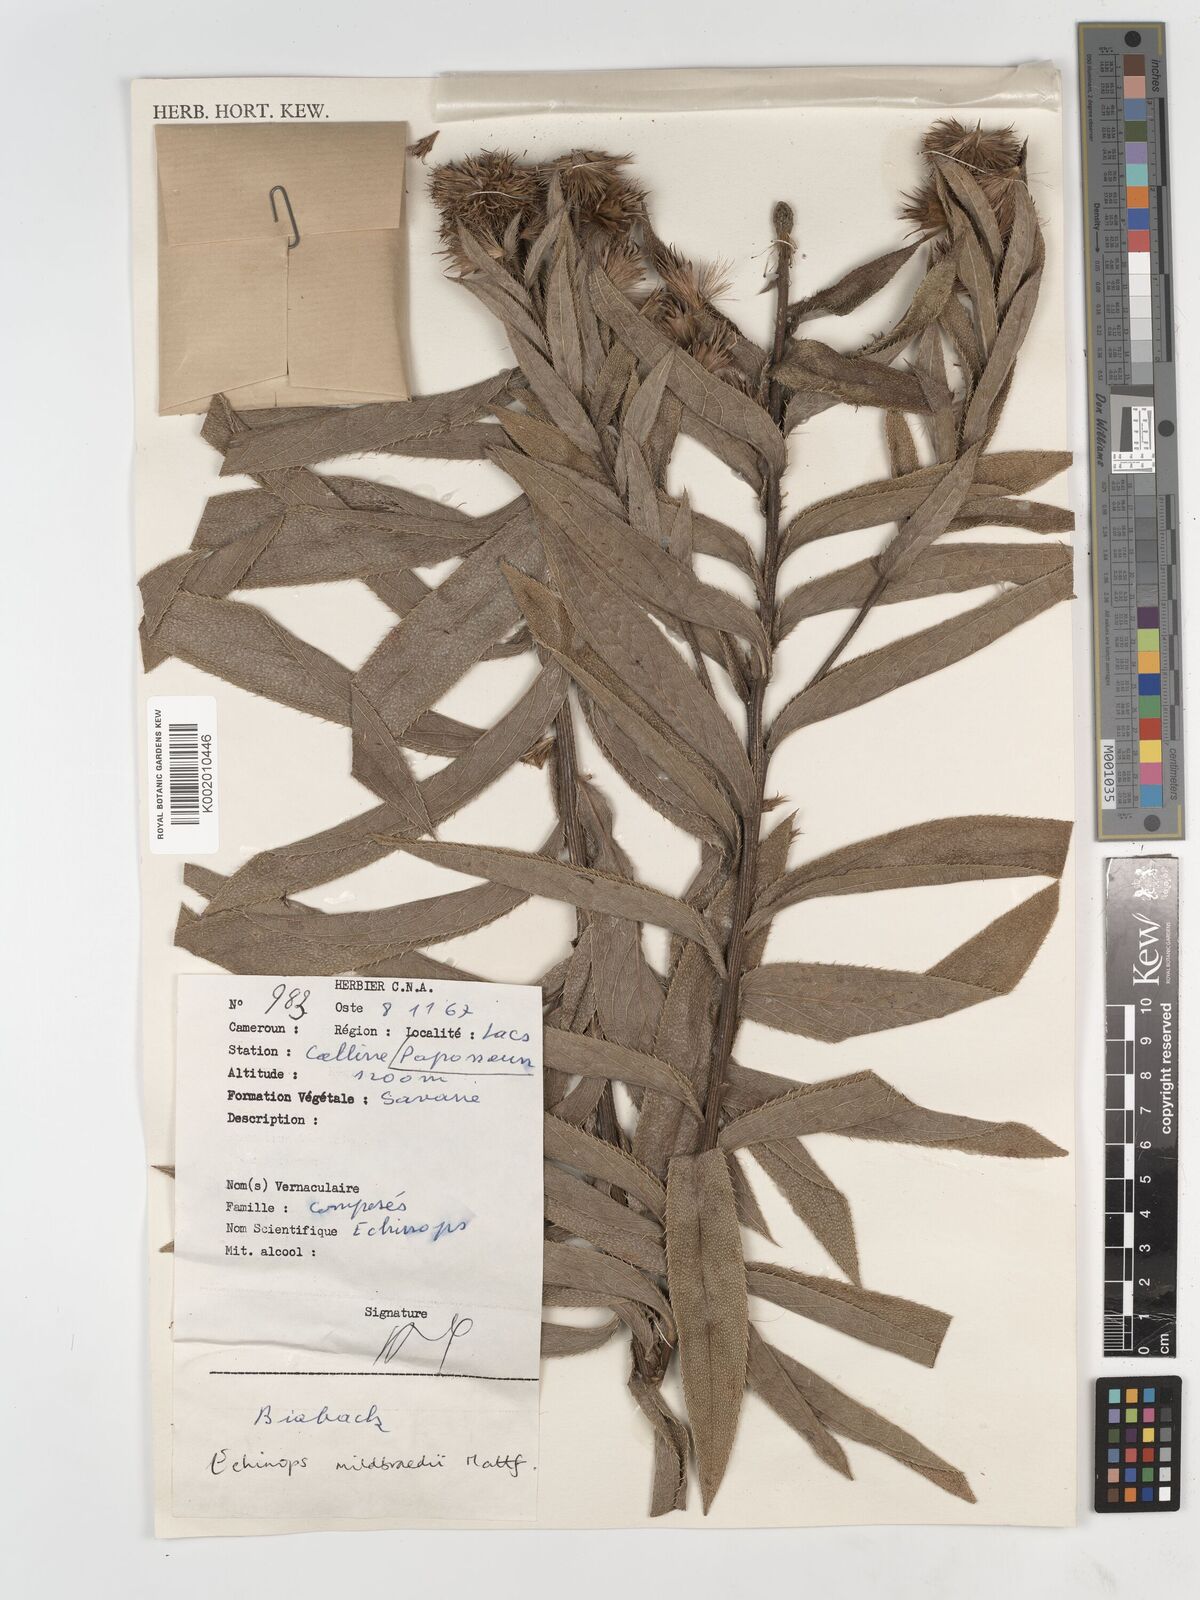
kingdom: Plantae
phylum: Tracheophyta
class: Magnoliopsida
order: Asterales
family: Asteraceae
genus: Echinops
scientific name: Echinops mildbraedii
